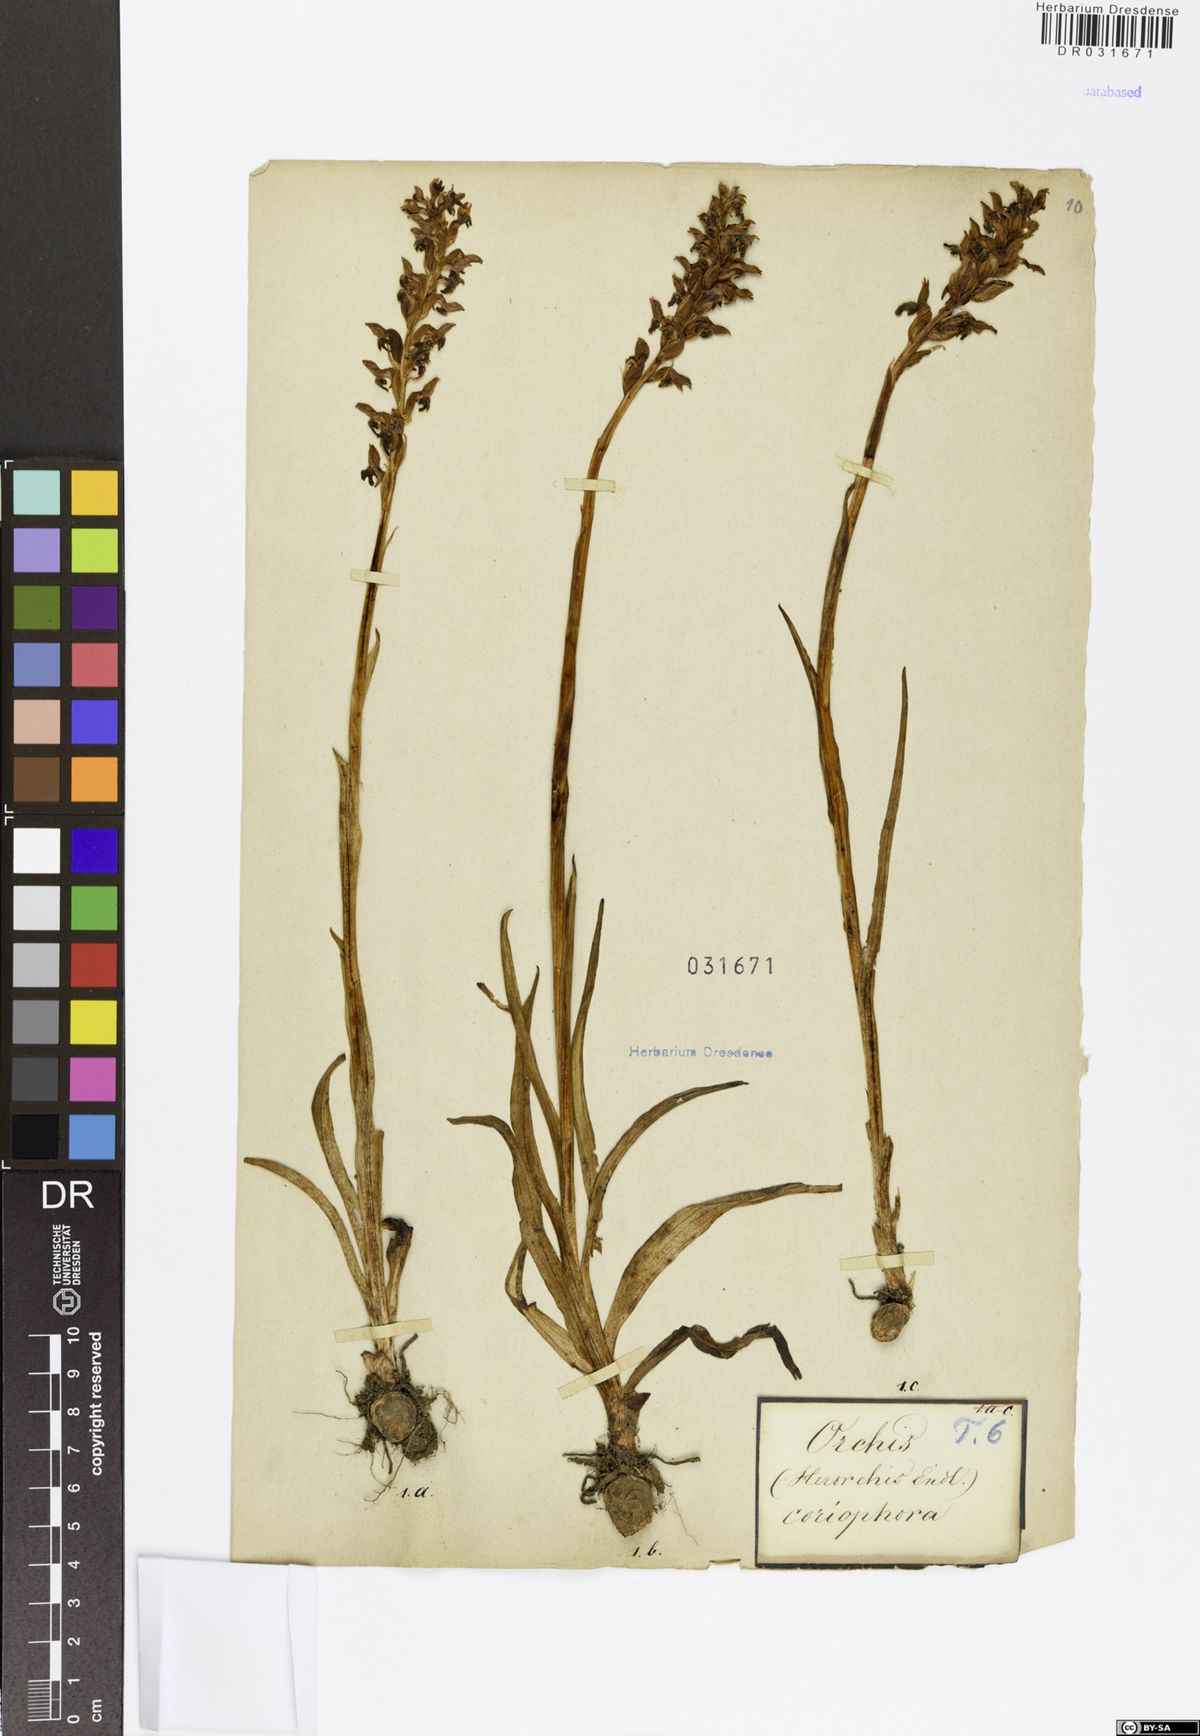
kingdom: Plantae
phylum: Tracheophyta
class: Liliopsida
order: Asparagales
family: Orchidaceae
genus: Anacamptis
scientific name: Anacamptis coriophora
